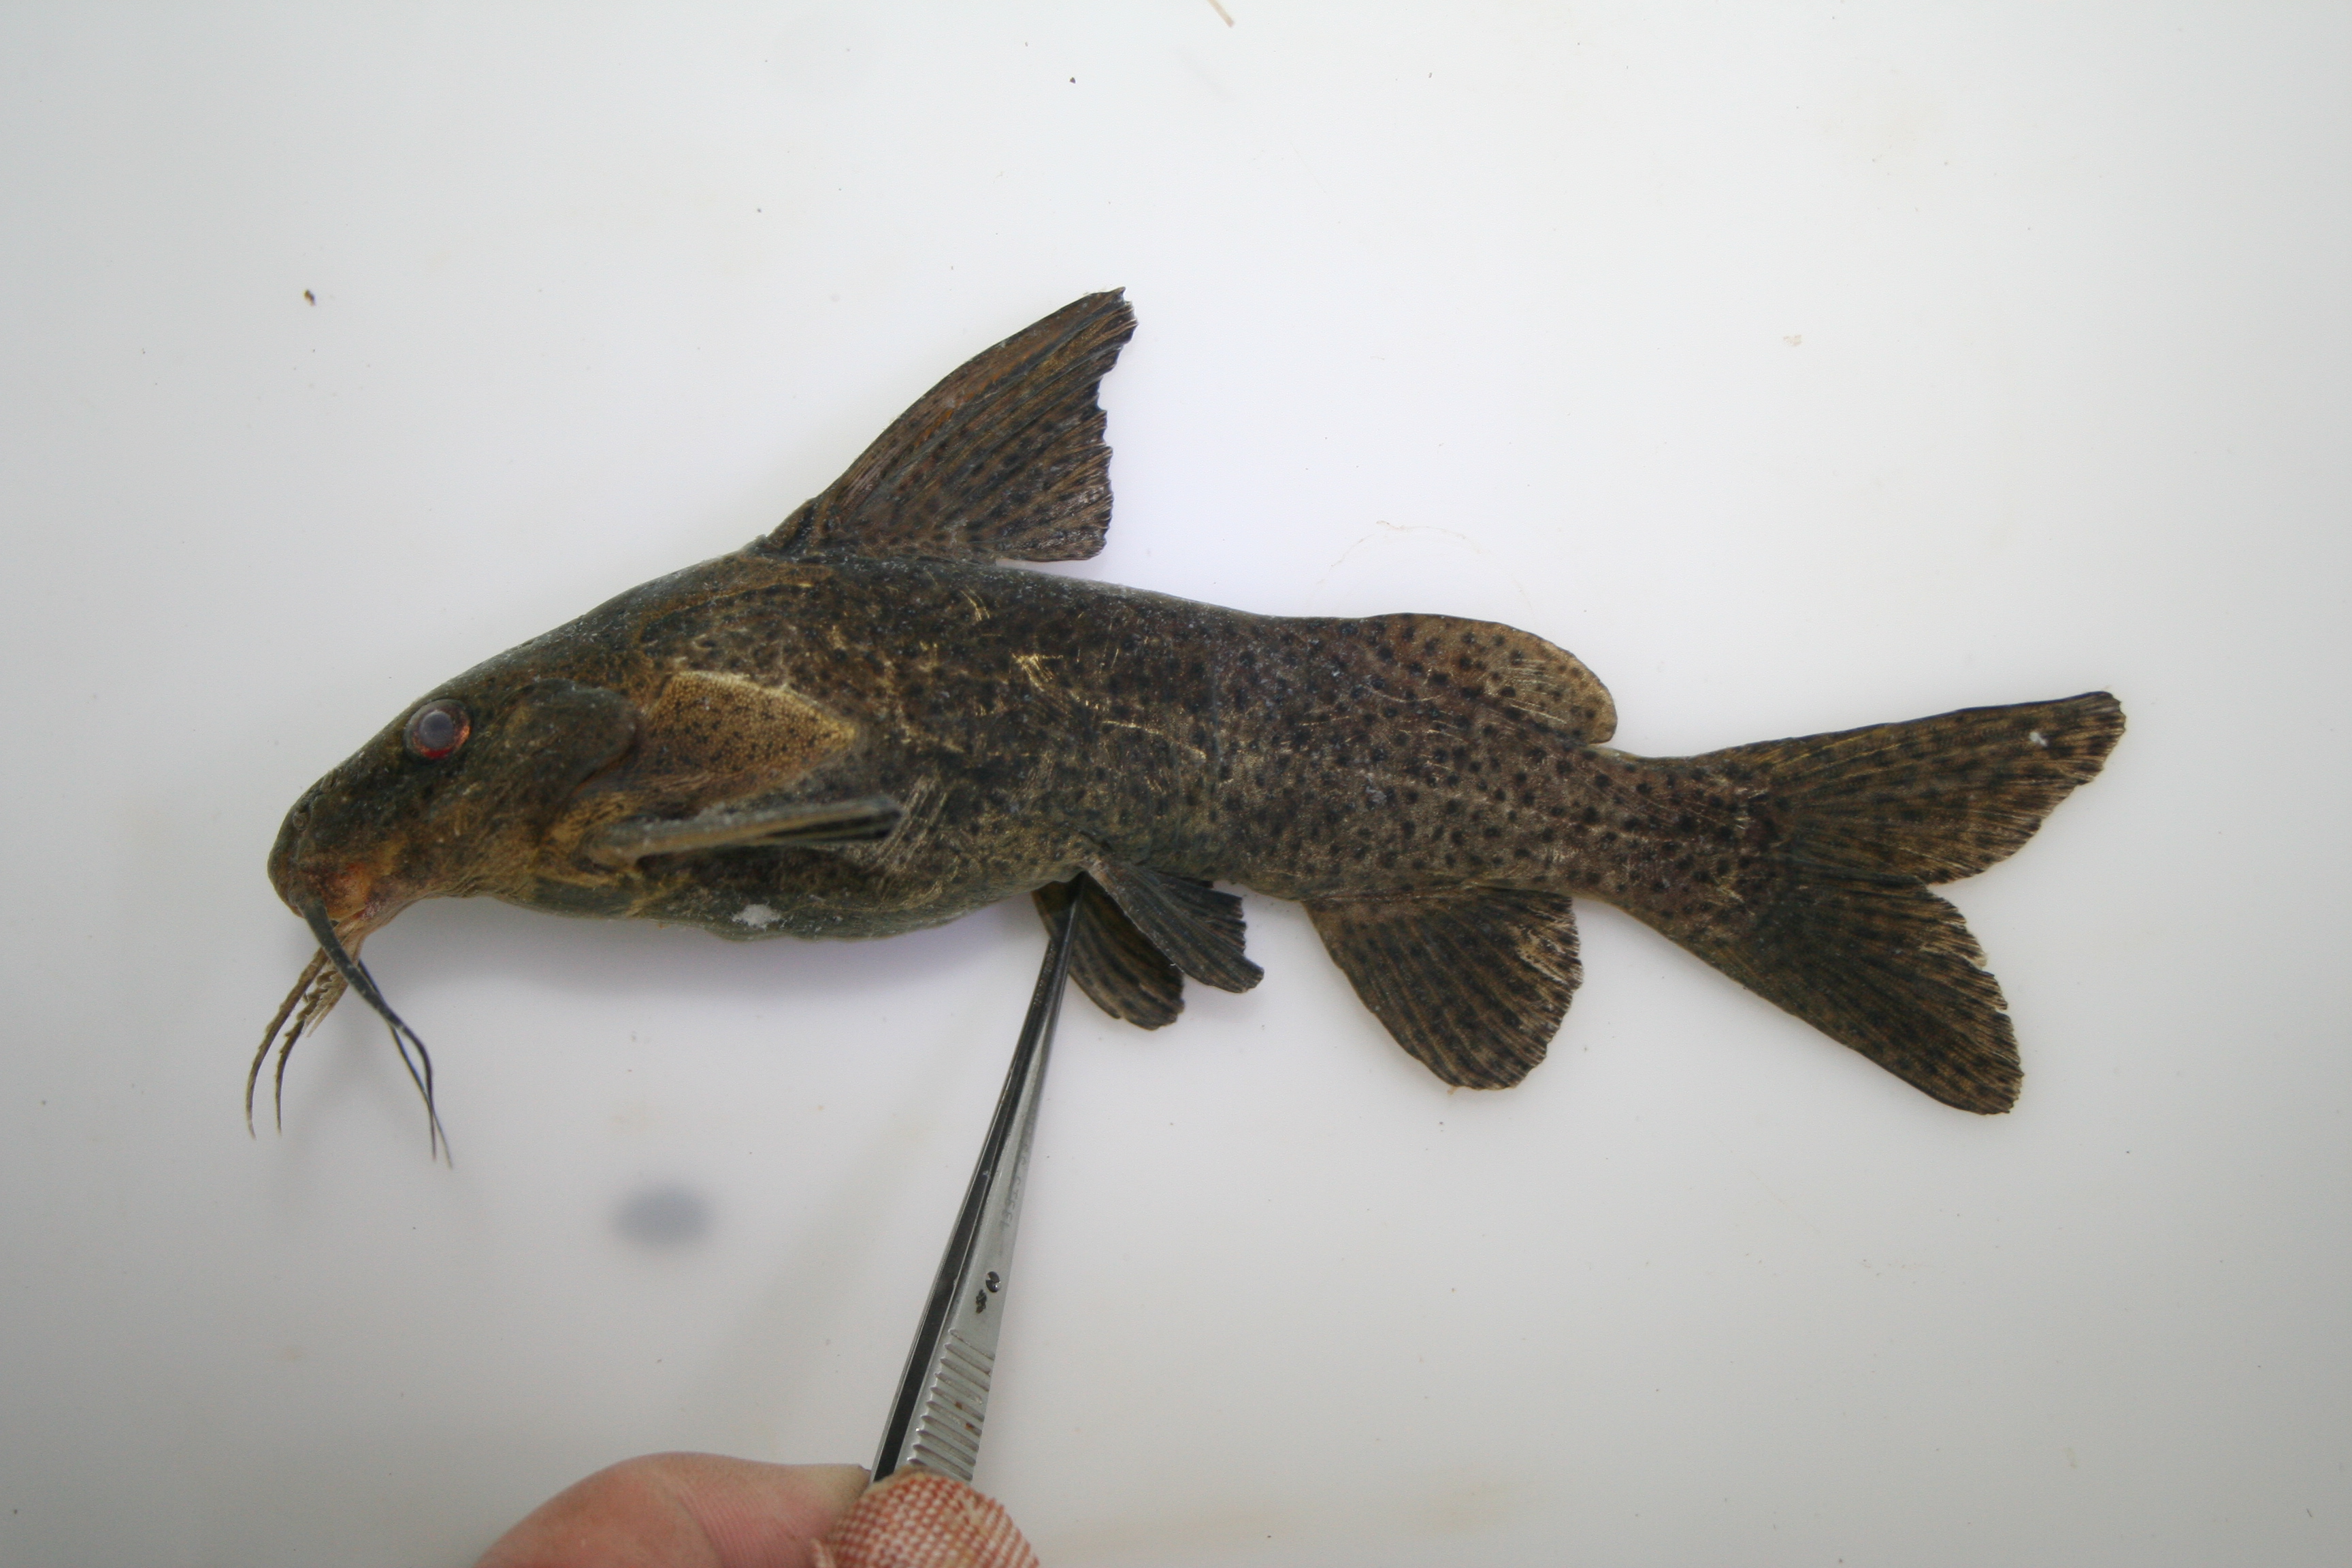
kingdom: Animalia
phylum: Chordata
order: Siluriformes
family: Mochokidae
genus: Synodontis
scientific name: Synodontis
